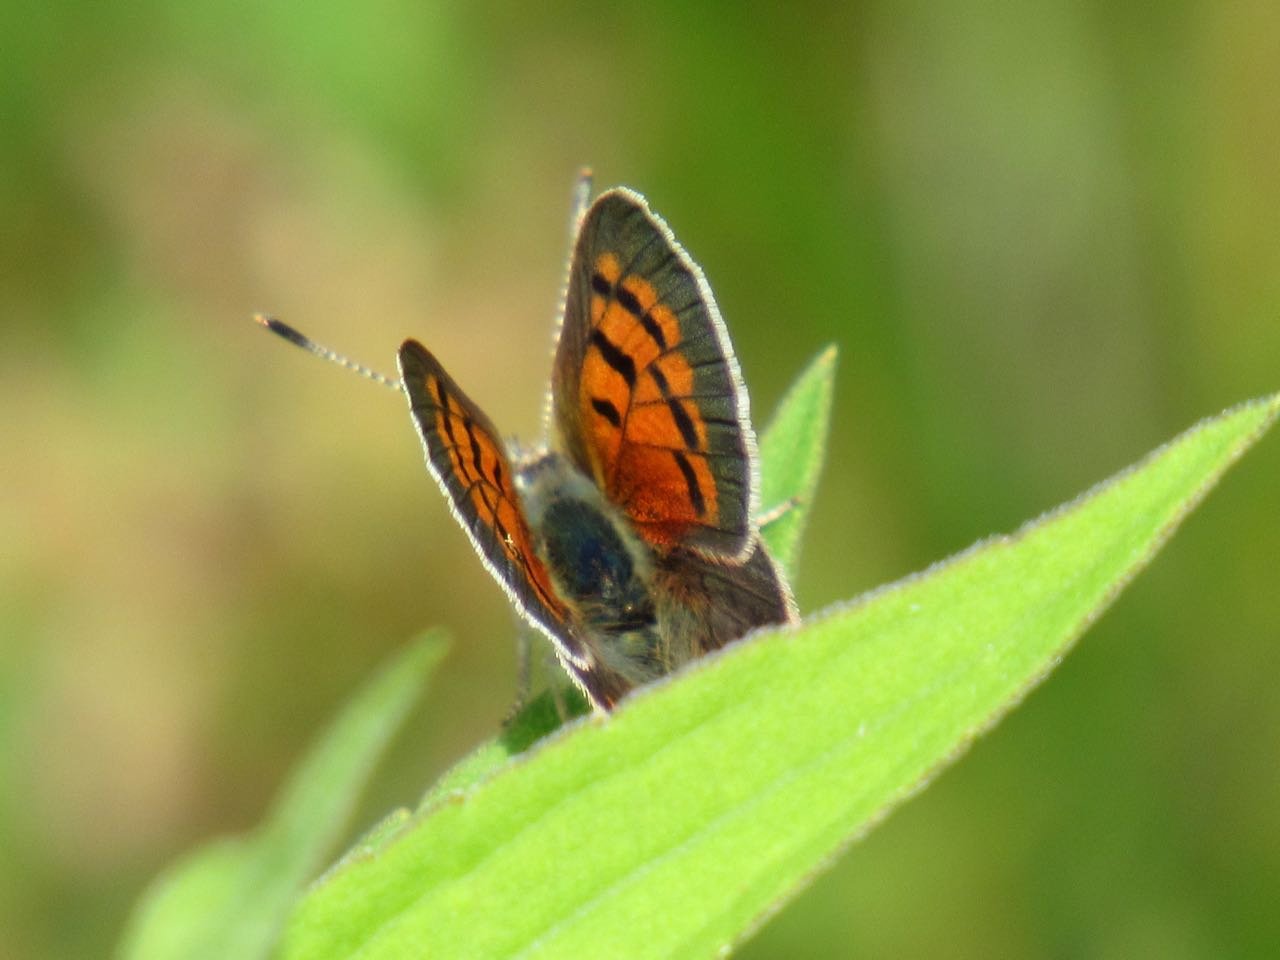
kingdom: Animalia
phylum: Arthropoda
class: Insecta
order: Lepidoptera
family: Lycaenidae
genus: Lycaena
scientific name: Lycaena phlaeas
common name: American Copper
